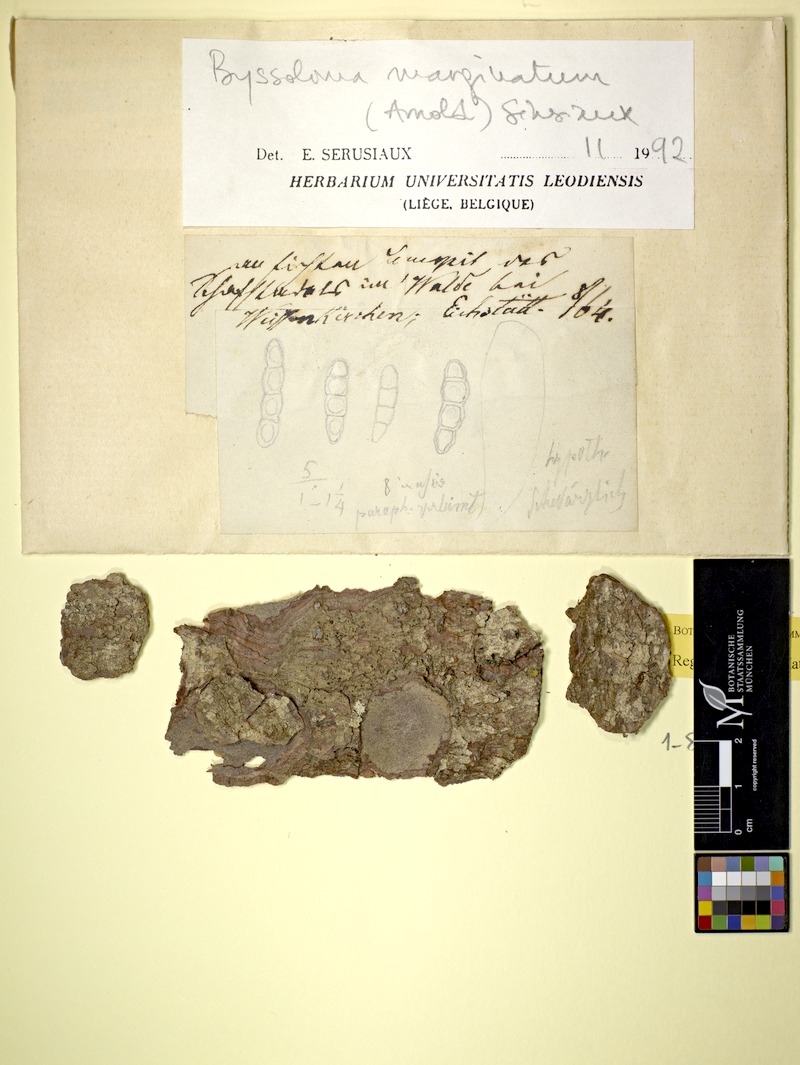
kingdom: Fungi
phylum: Ascomycota
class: Lecanoromycetes
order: Lecanorales
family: Byssolomataceae
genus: Byssoloma
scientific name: Byssoloma marginatum
